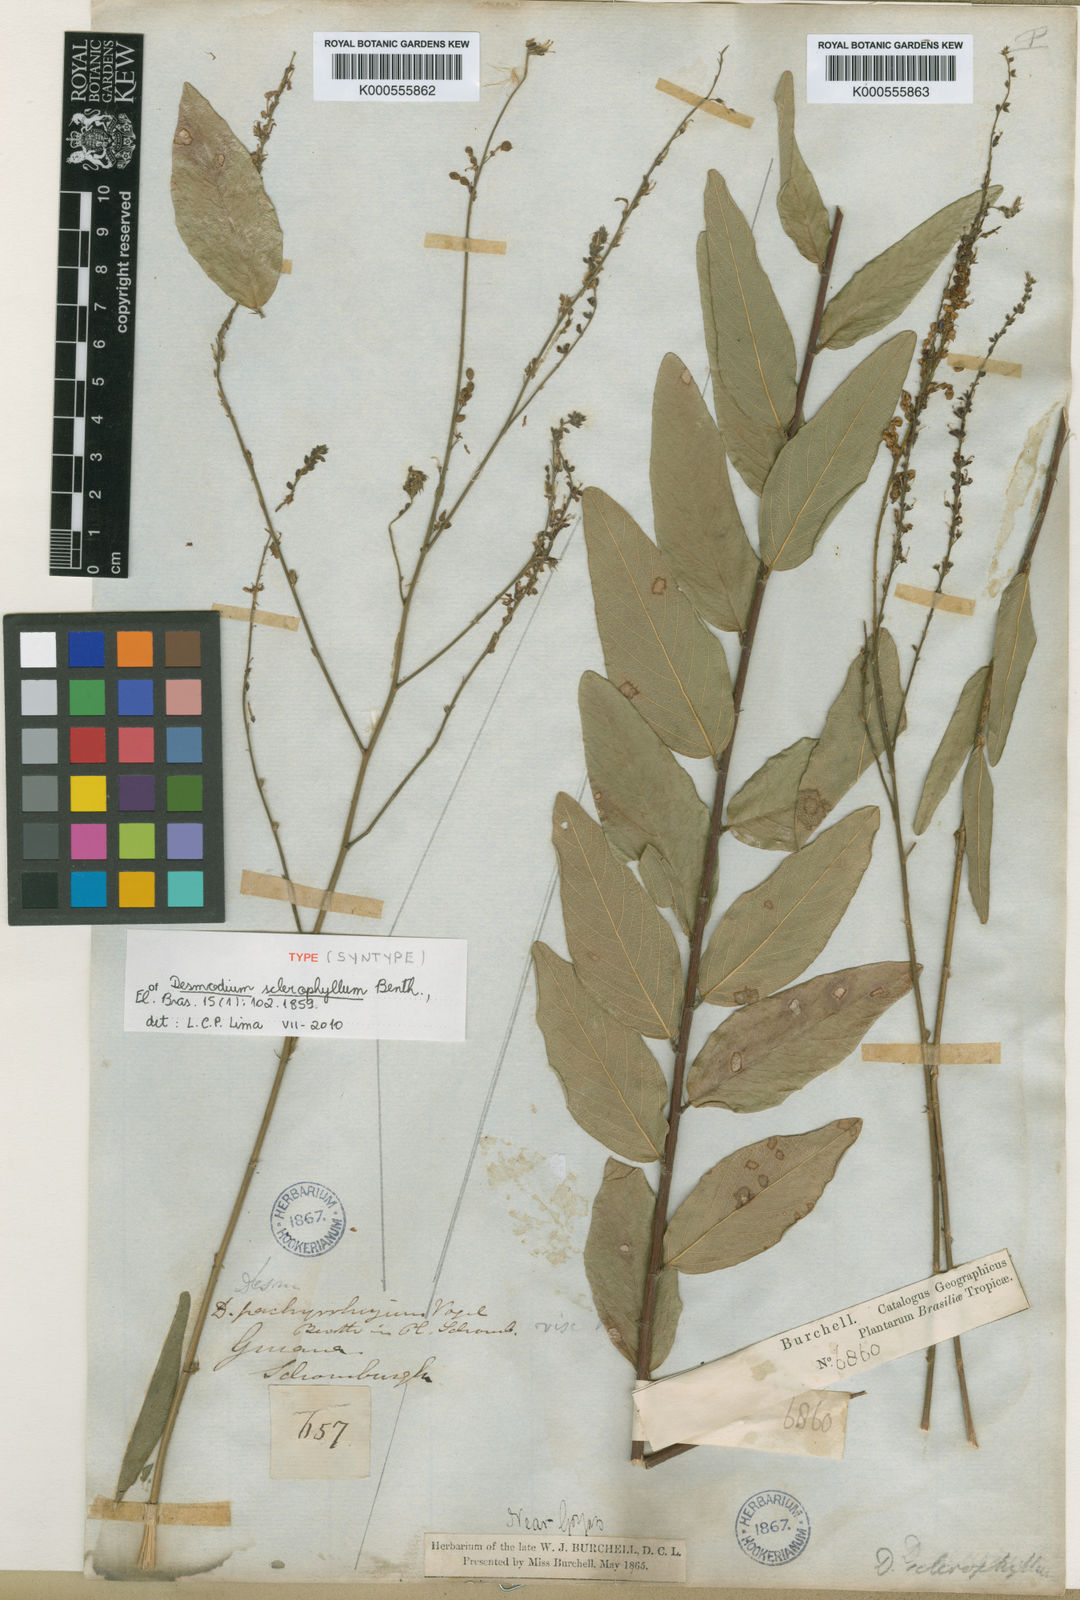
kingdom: Plantae
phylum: Tracheophyta
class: Magnoliopsida
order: Fabales
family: Fabaceae
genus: Desmodium
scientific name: Desmodium sclerophyllum
